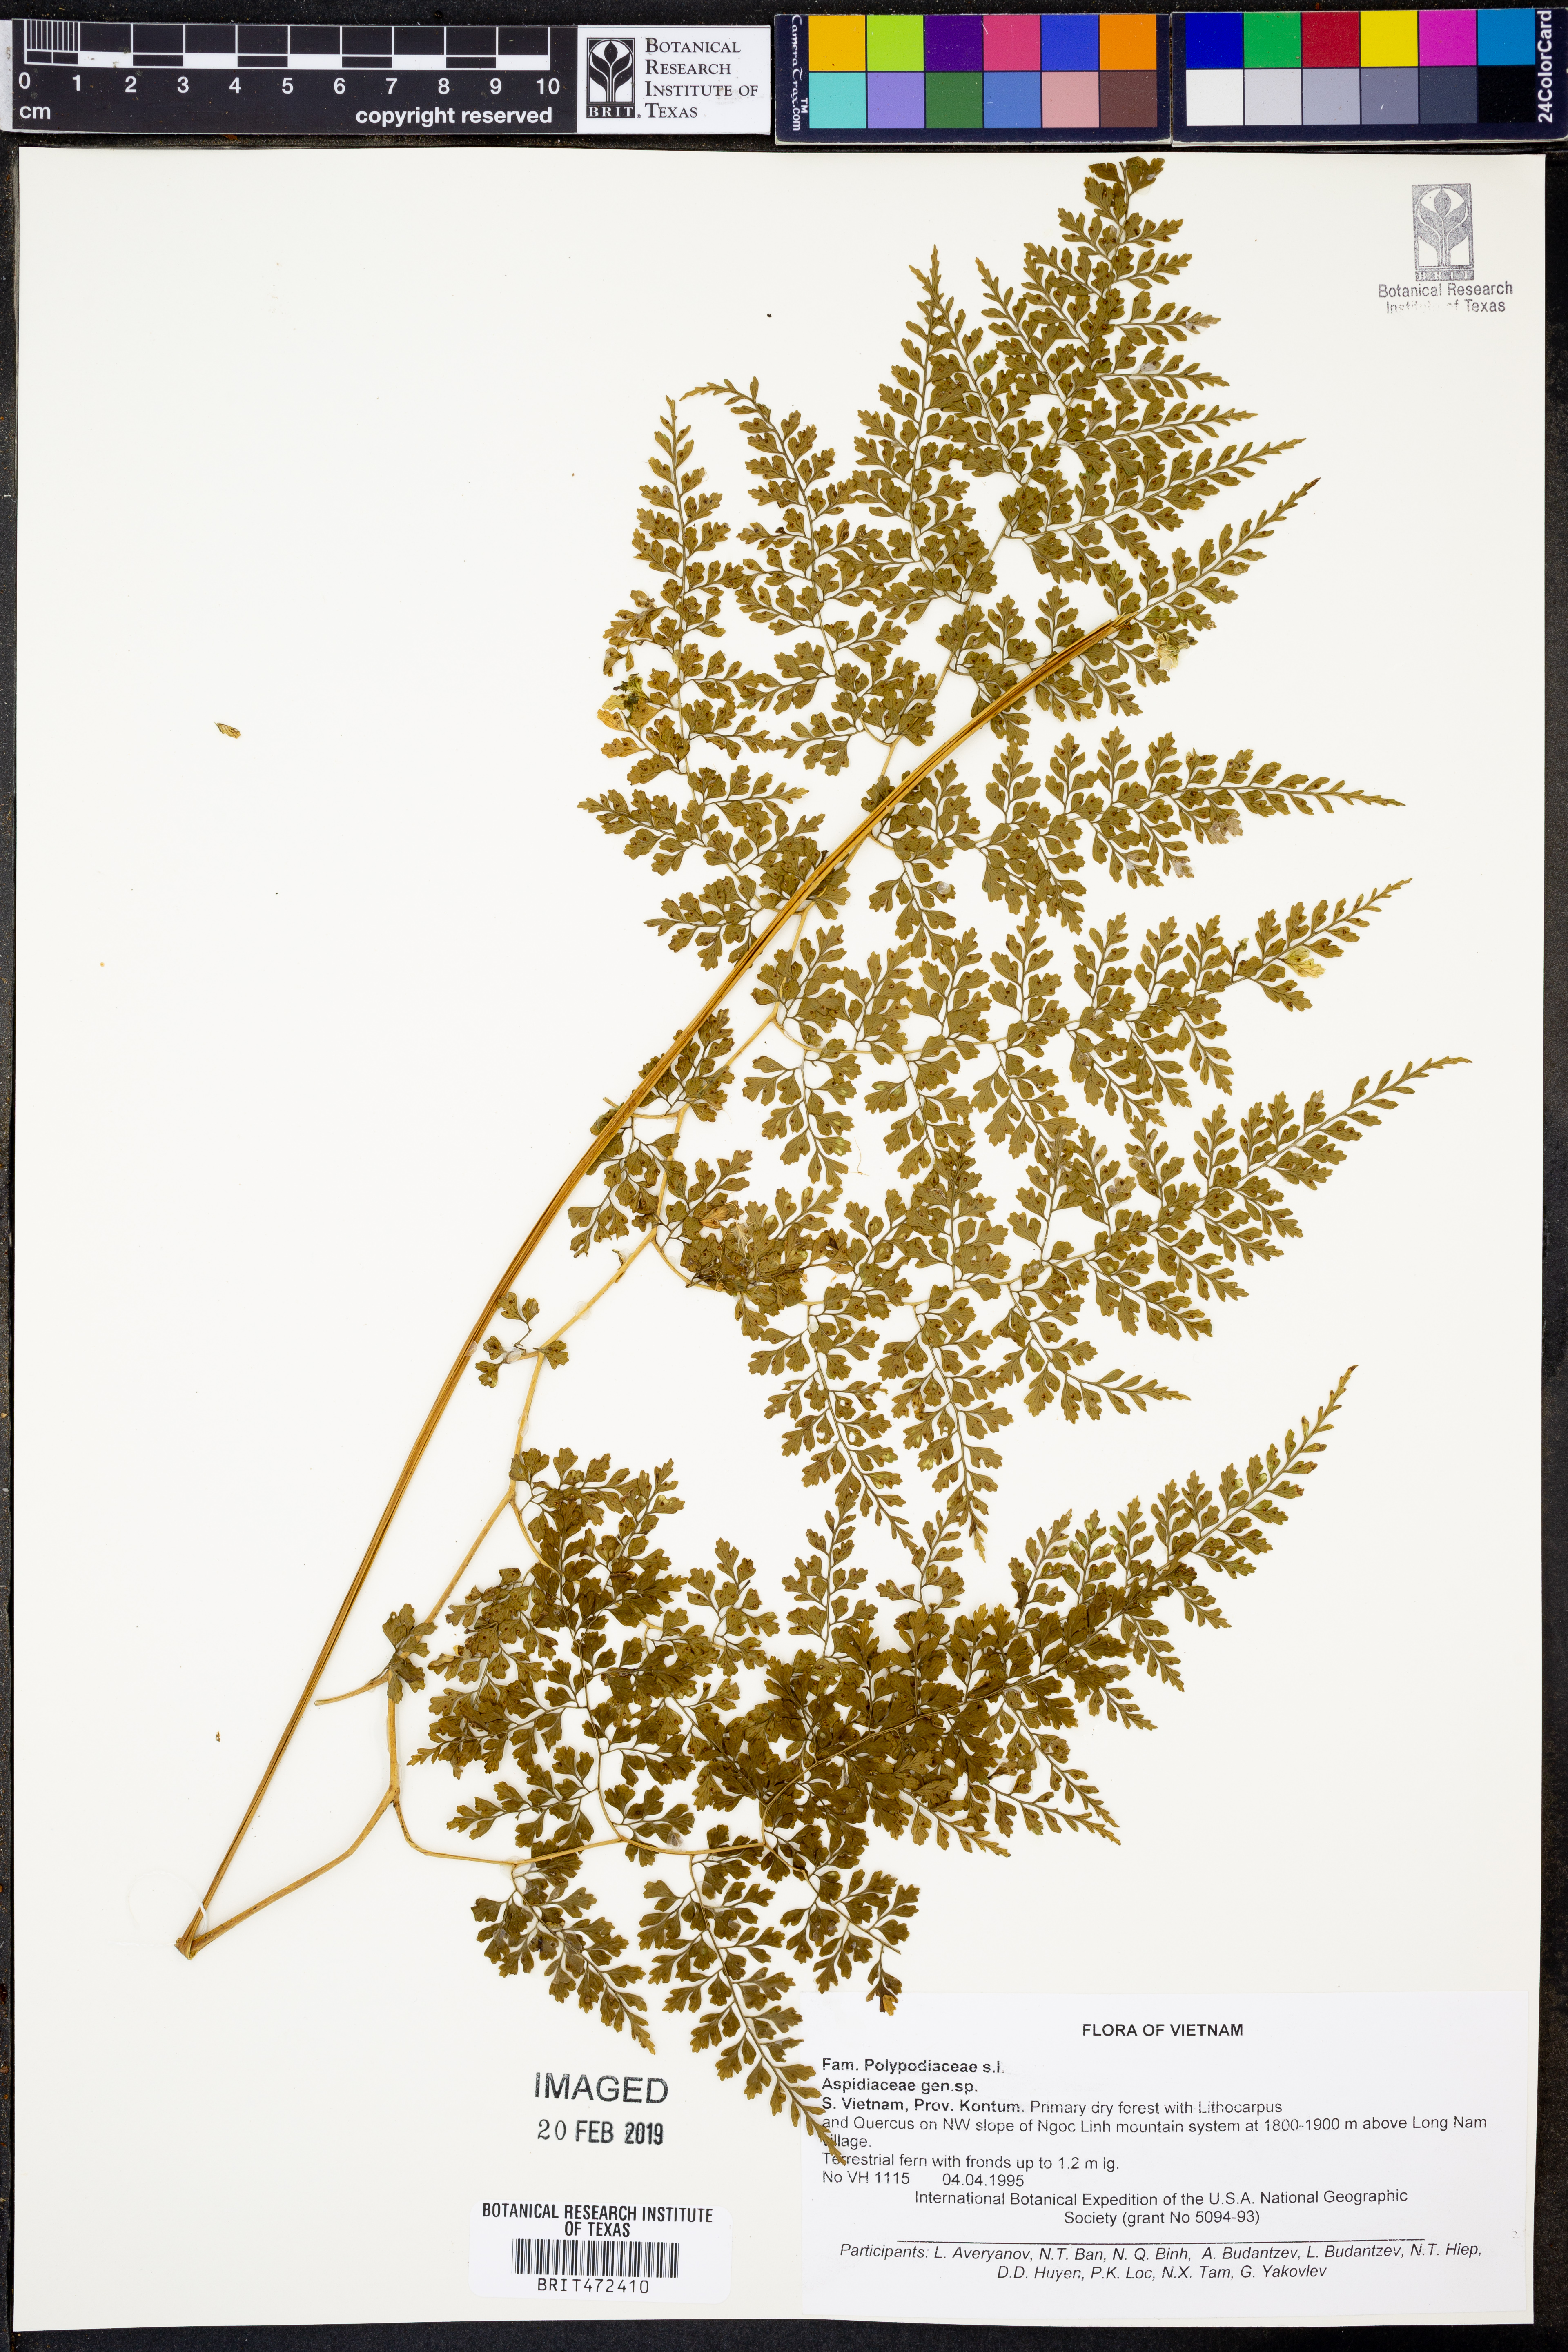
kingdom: Plantae
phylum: Tracheophyta
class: Polypodiopsida
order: Polypodiales
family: Dryopteridaceae
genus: Dryopteris
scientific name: Dryopteris diffracta
